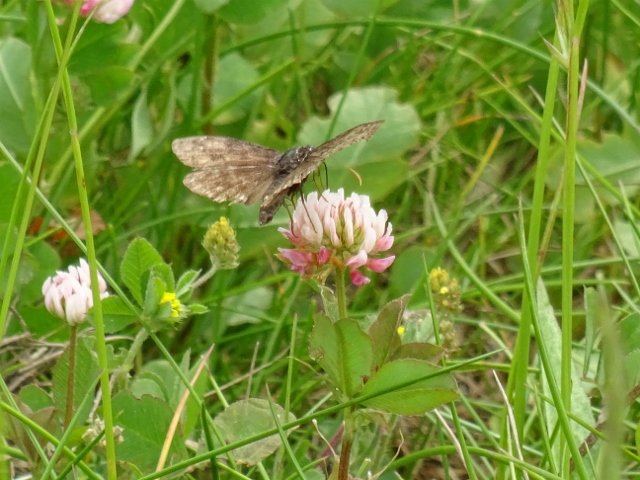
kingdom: Animalia
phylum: Arthropoda
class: Insecta
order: Lepidoptera
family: Hesperiidae
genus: Erynnis
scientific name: Erynnis
